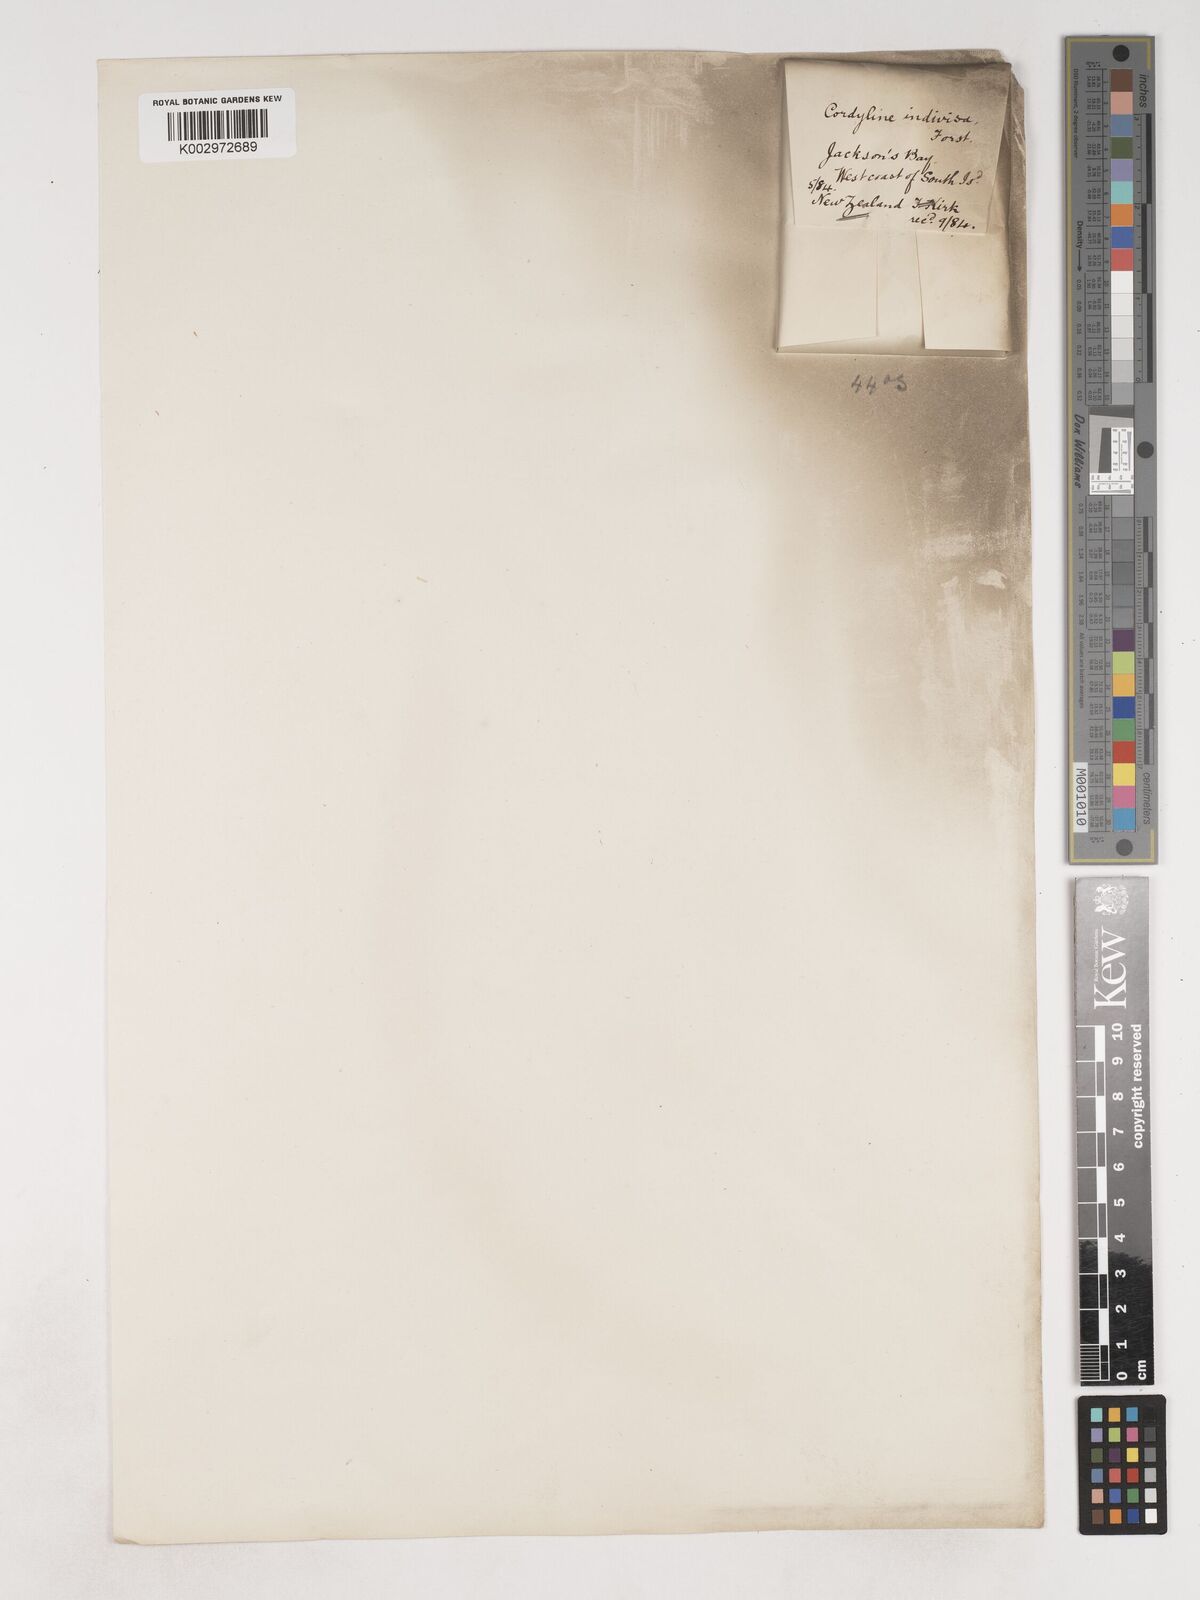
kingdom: Plantae
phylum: Tracheophyta
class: Liliopsida
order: Asparagales
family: Asparagaceae
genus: Cordyline
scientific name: Cordyline
